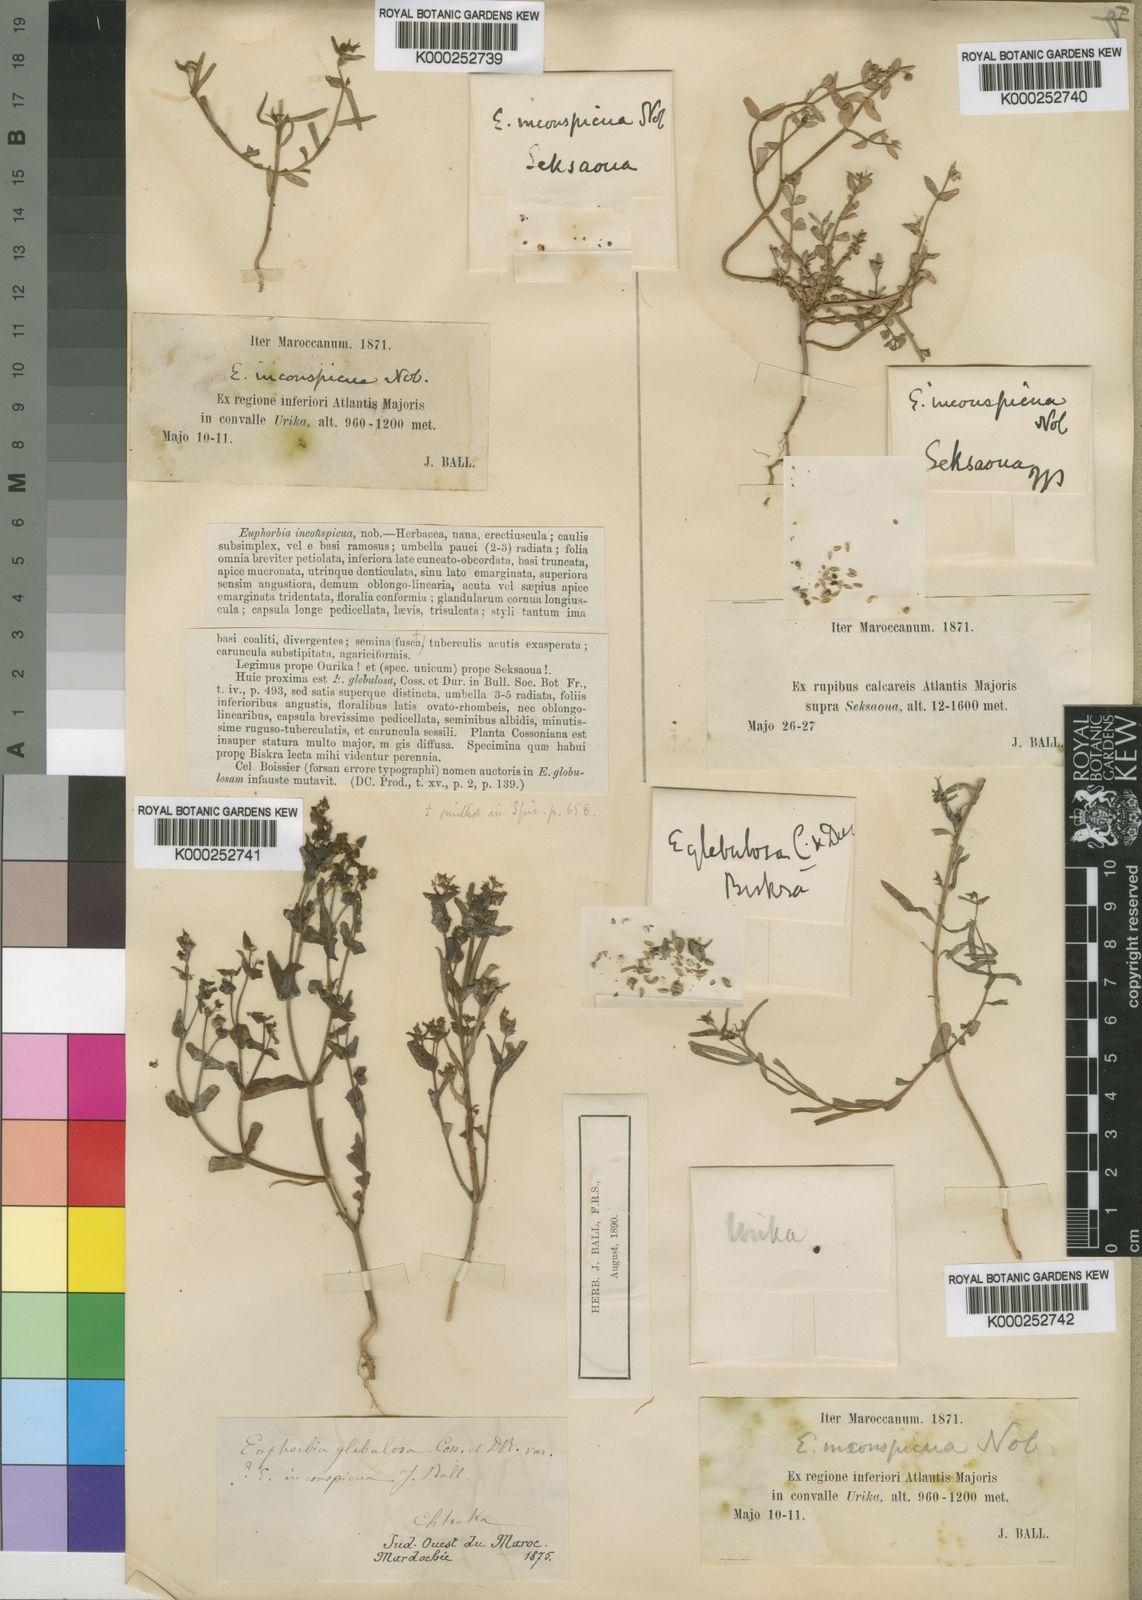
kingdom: Plantae
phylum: Tracheophyta
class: Magnoliopsida
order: Malpighiales
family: Euphorbiaceae
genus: Euphorbia
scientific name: Euphorbia dracunculoides
